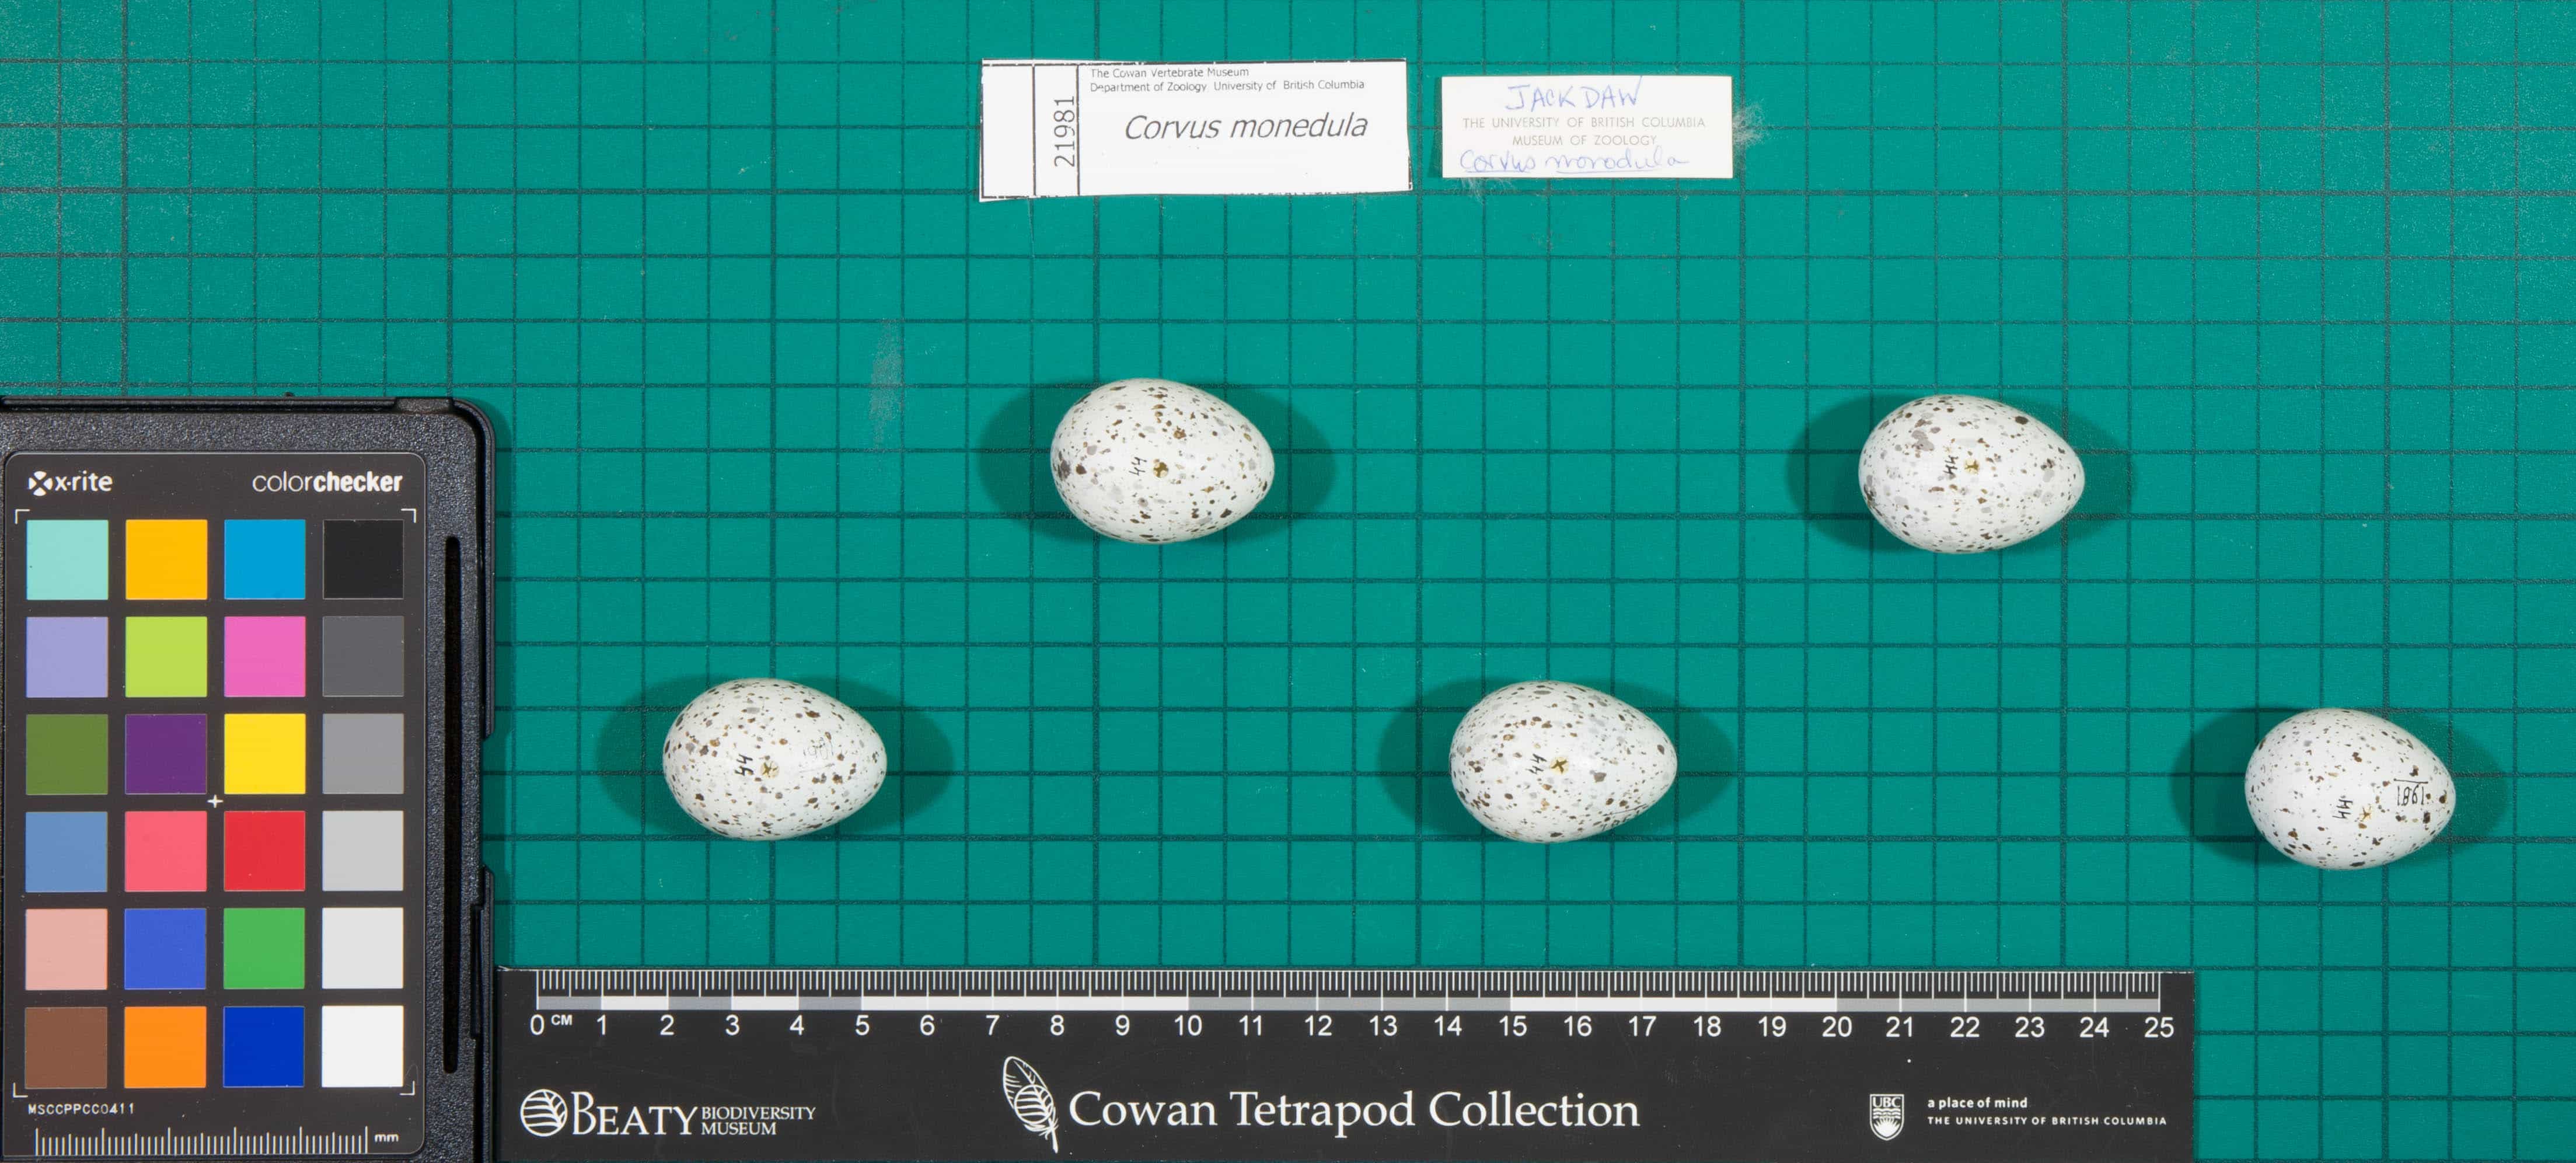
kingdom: Animalia
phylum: Chordata
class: Aves
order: Passeriformes
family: Corvidae
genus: Coloeus
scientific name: Coloeus monedula
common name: Eurasian Jackdaw
